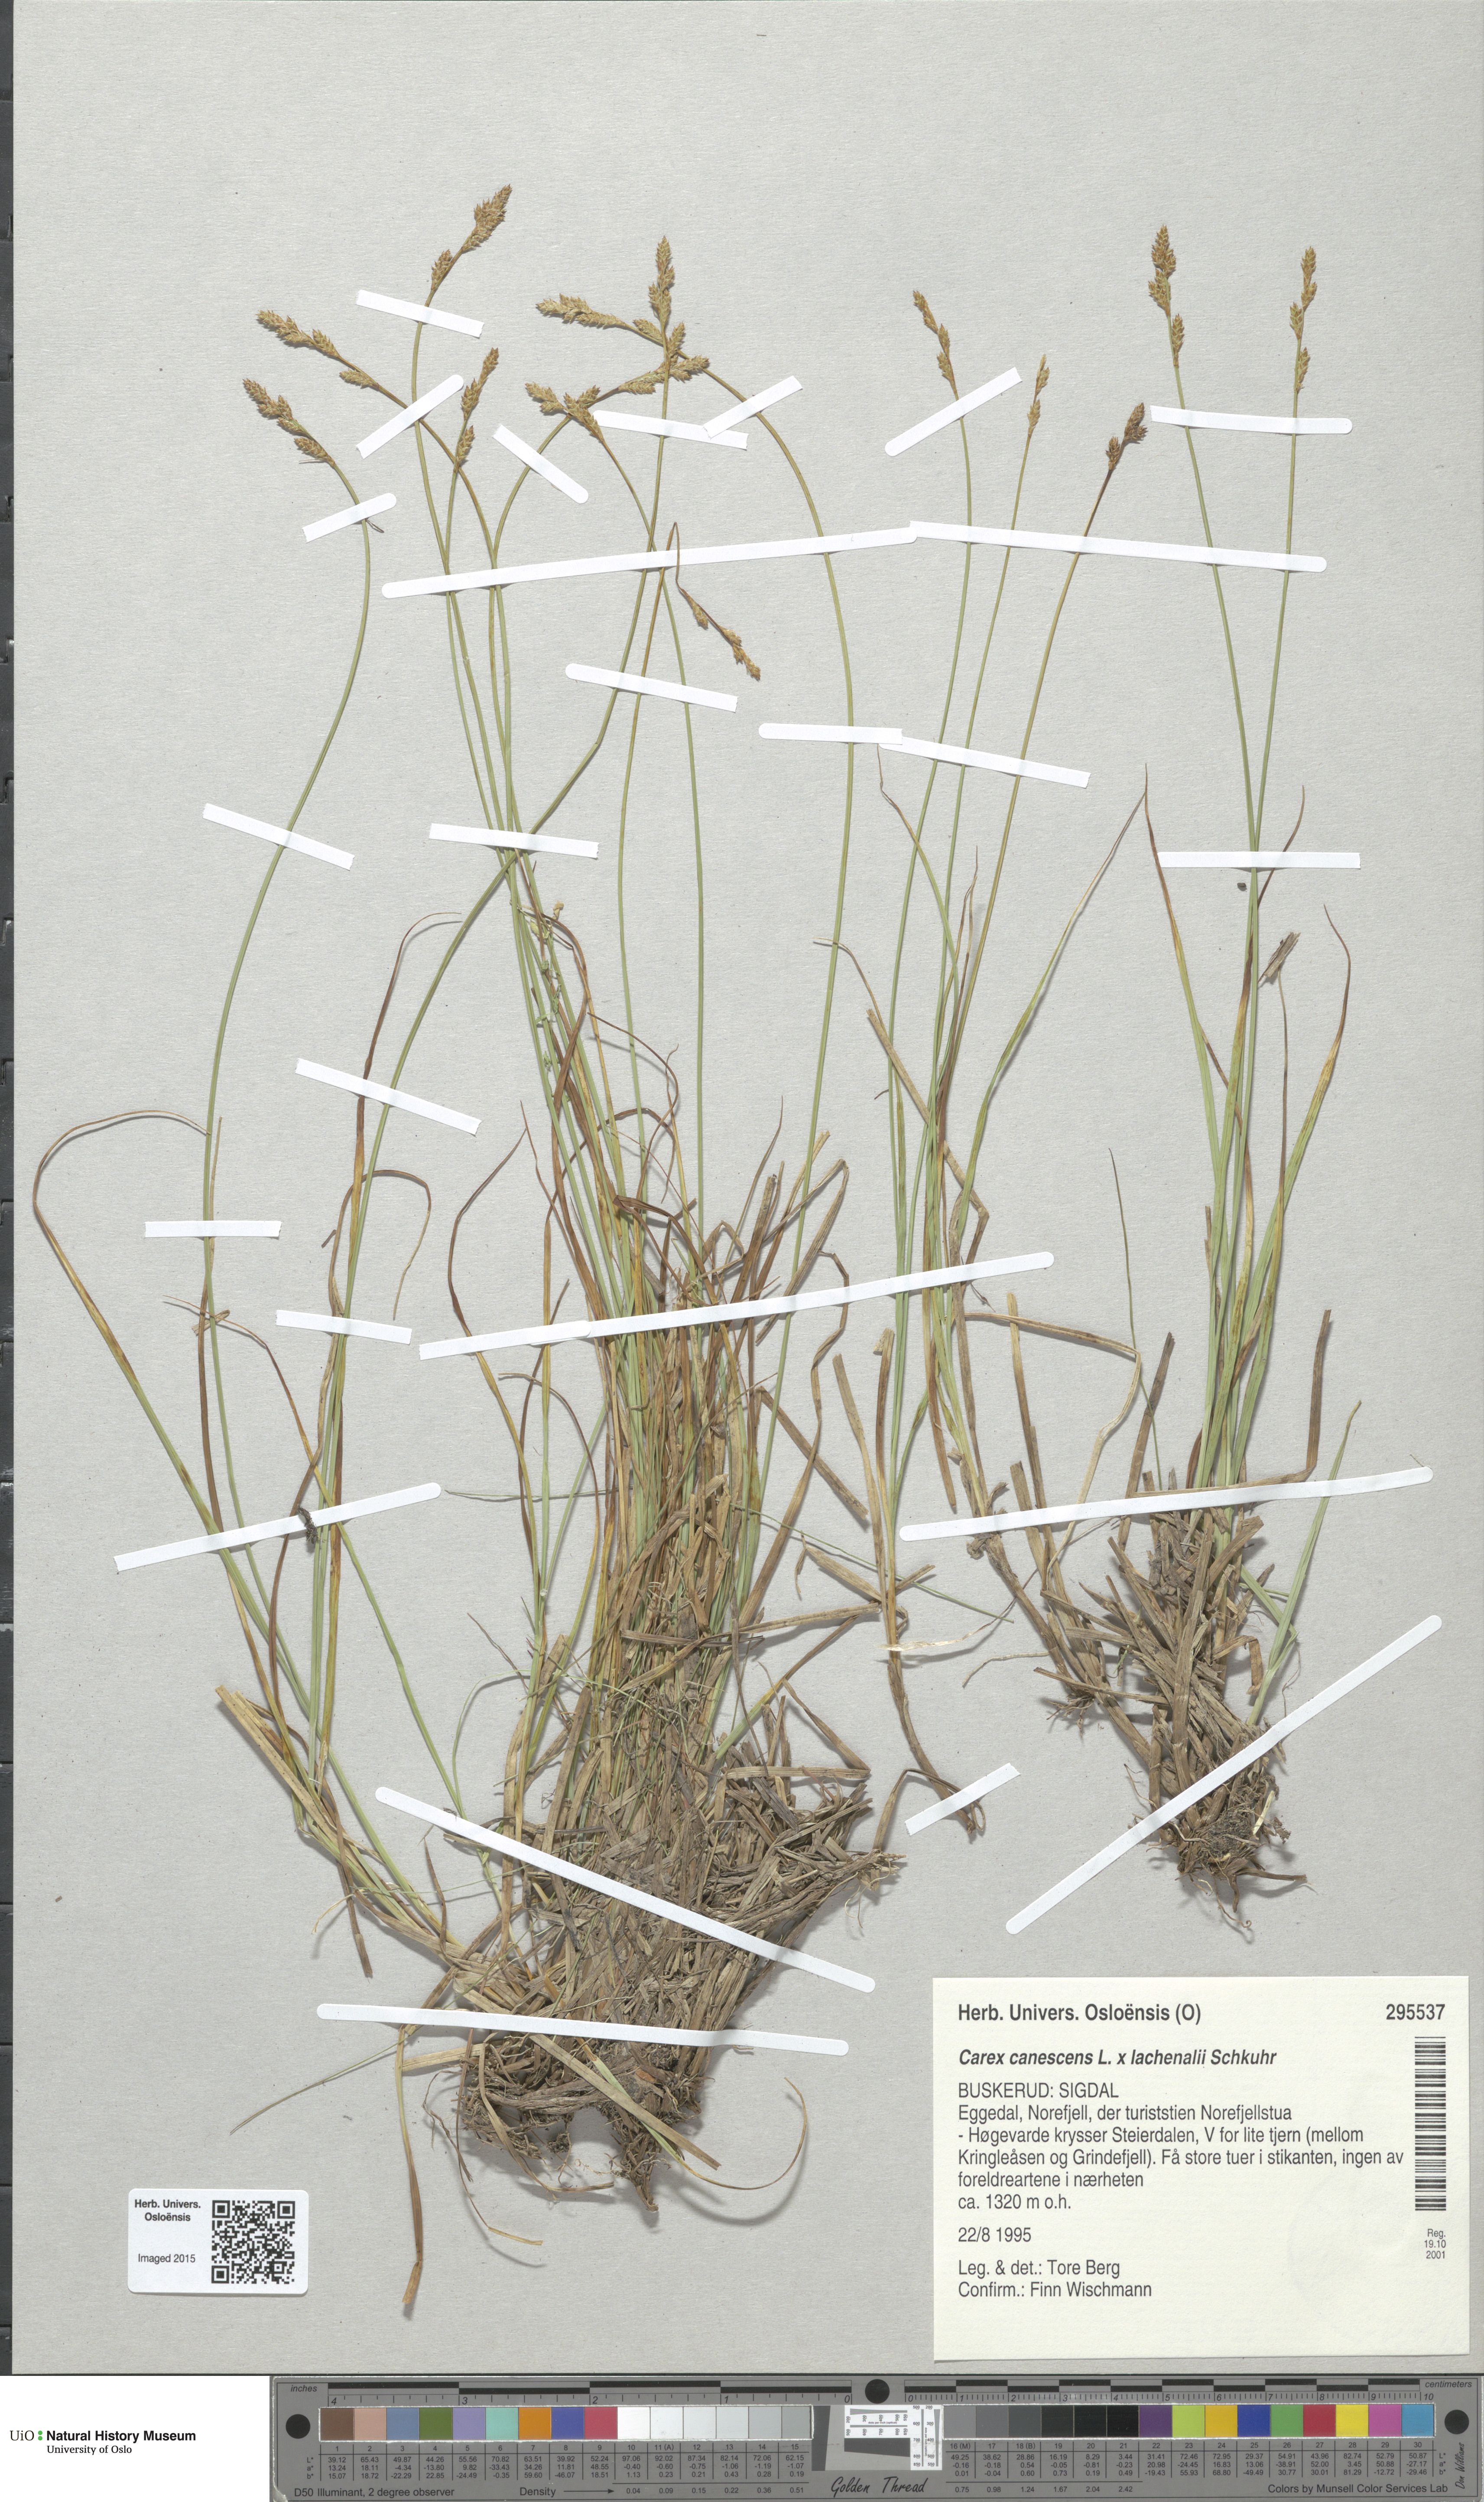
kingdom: Plantae
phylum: Tracheophyta
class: Liliopsida
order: Poales
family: Cyperaceae
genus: Carex
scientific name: Carex
